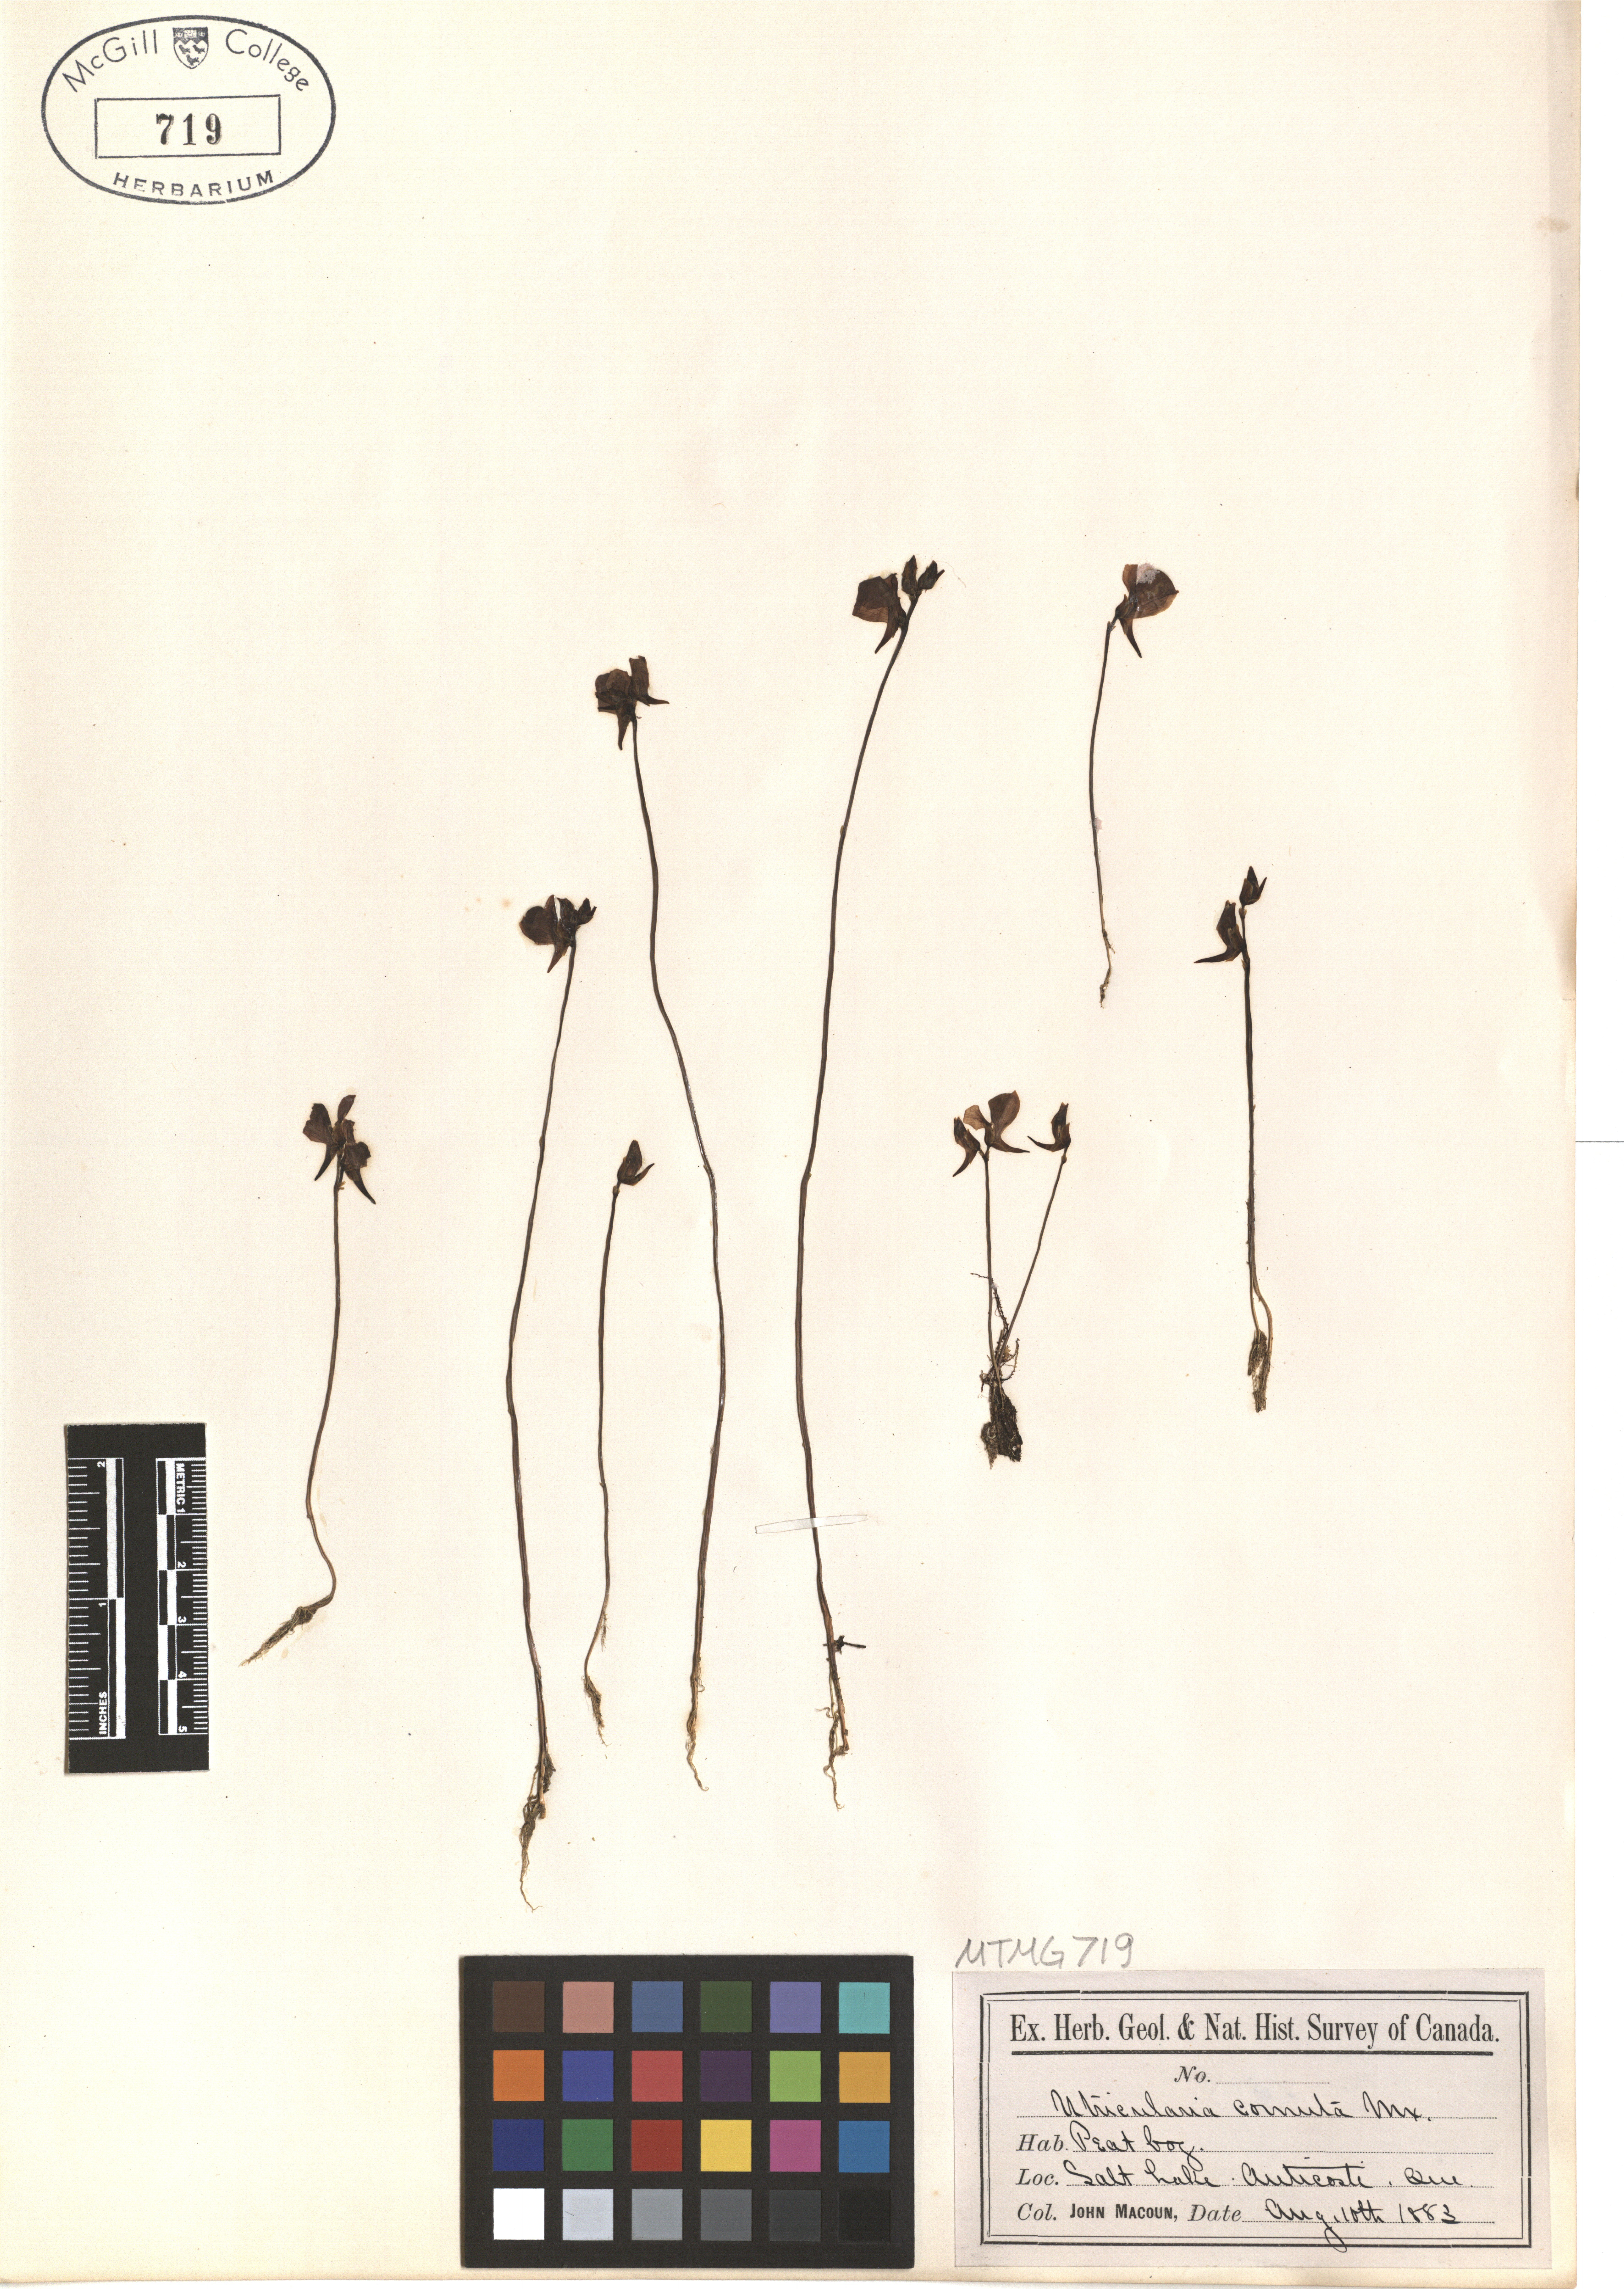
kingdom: Plantae
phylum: Tracheophyta
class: Magnoliopsida
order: Lamiales
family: Lentibulariaceae
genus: Utricularia
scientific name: Utricularia cornuta
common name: Horned bladderwort
